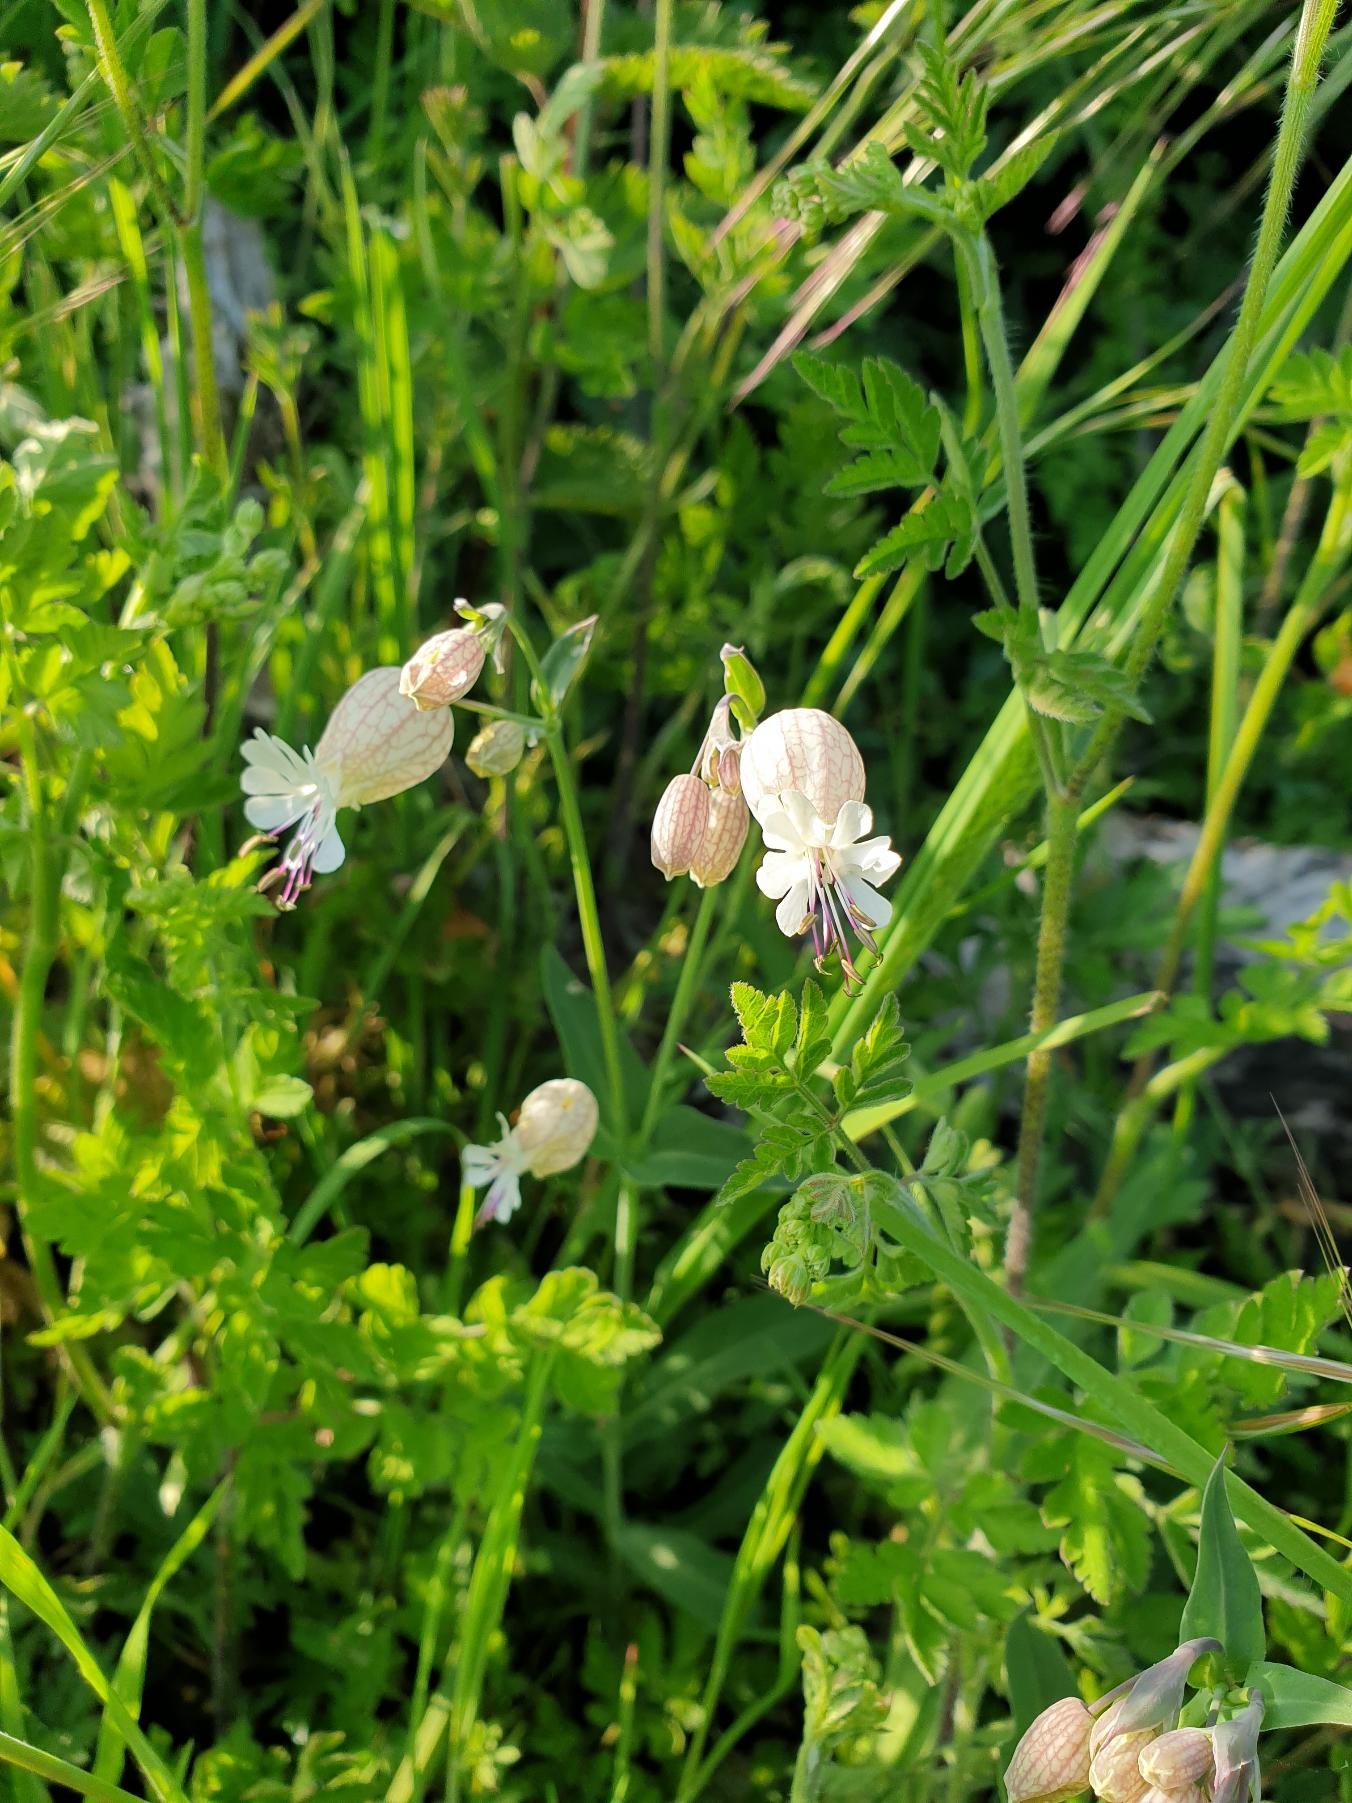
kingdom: Plantae
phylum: Tracheophyta
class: Magnoliopsida
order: Caryophyllales
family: Caryophyllaceae
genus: Silene
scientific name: Silene vulgaris
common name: Blæresmælde
